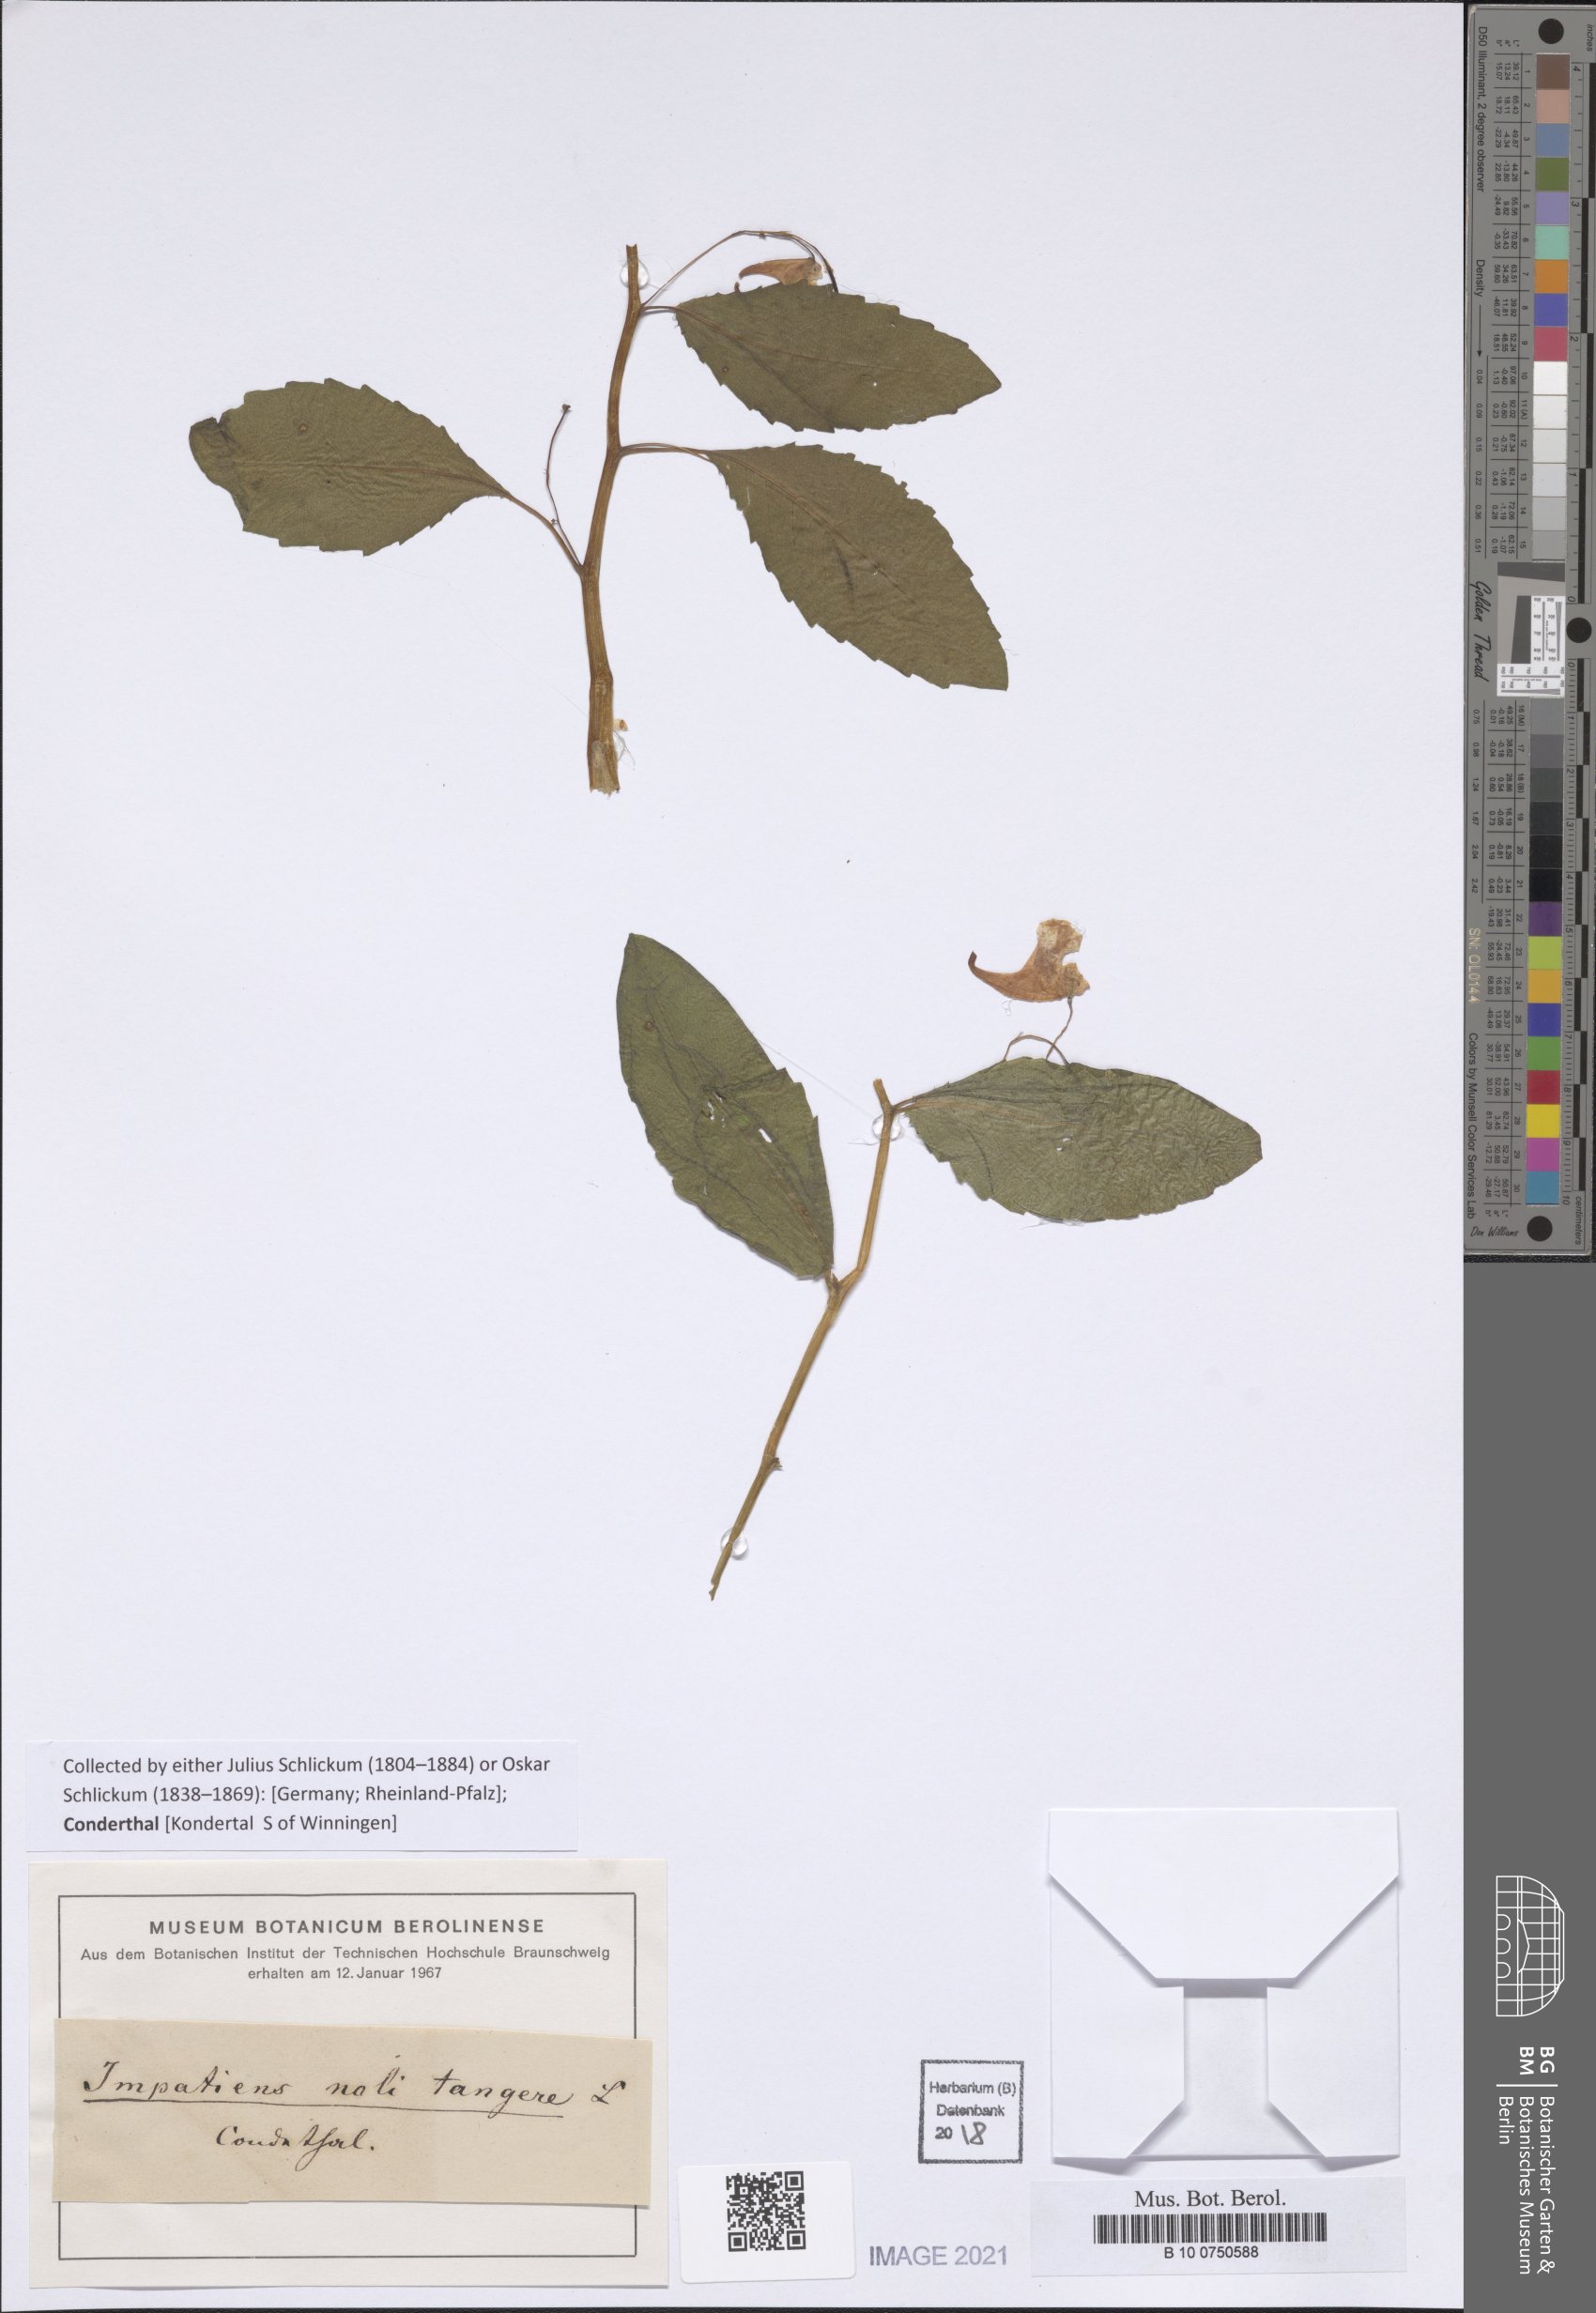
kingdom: Plantae
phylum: Tracheophyta
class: Magnoliopsida
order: Ericales
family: Balsaminaceae
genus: Impatiens
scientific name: Impatiens noli-tangere
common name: Touch-me-not balsam
